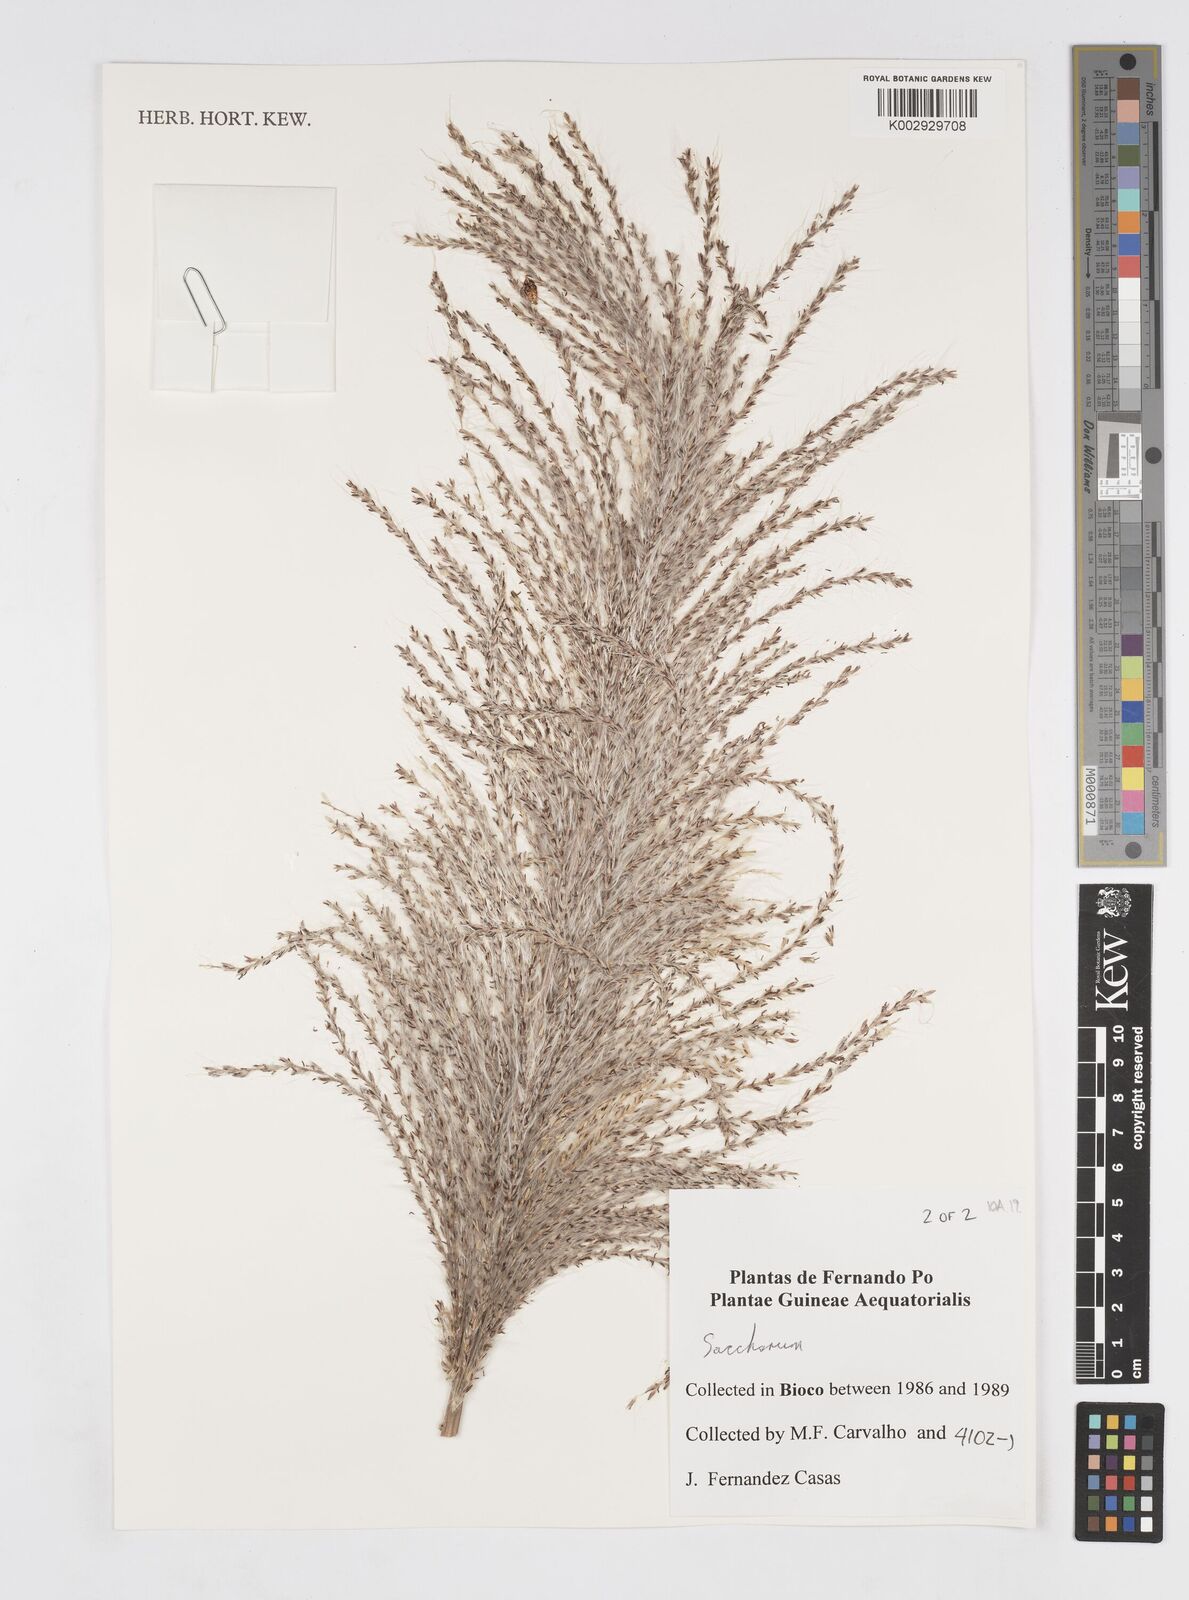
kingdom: Plantae
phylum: Tracheophyta
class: Liliopsida
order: Poales
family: Poaceae
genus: Saccharum
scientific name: Saccharum officinarum
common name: Sugarcane
